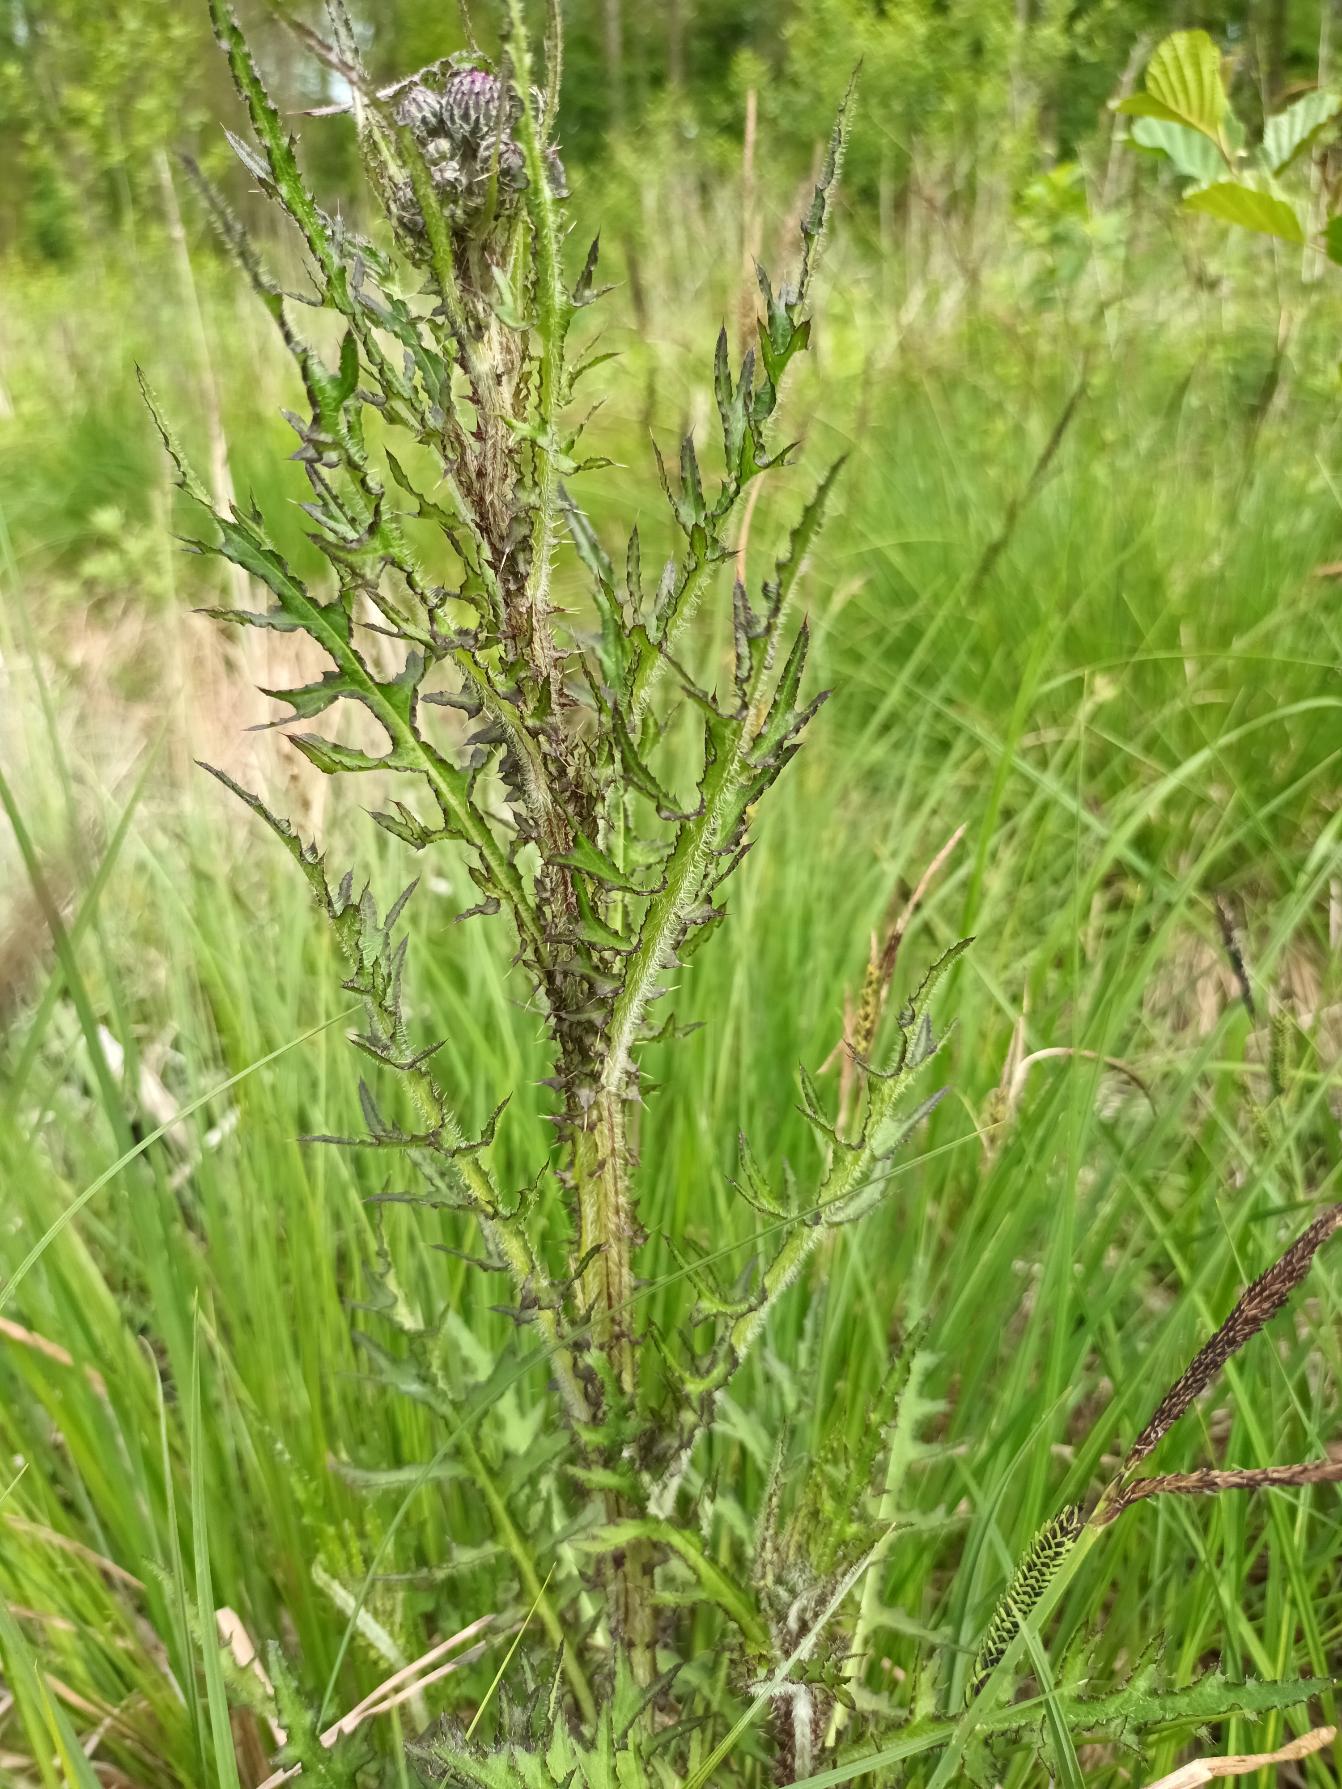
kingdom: Plantae
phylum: Tracheophyta
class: Magnoliopsida
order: Asterales
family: Asteraceae
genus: Cirsium
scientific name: Cirsium palustre
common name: Kær-tidsel
